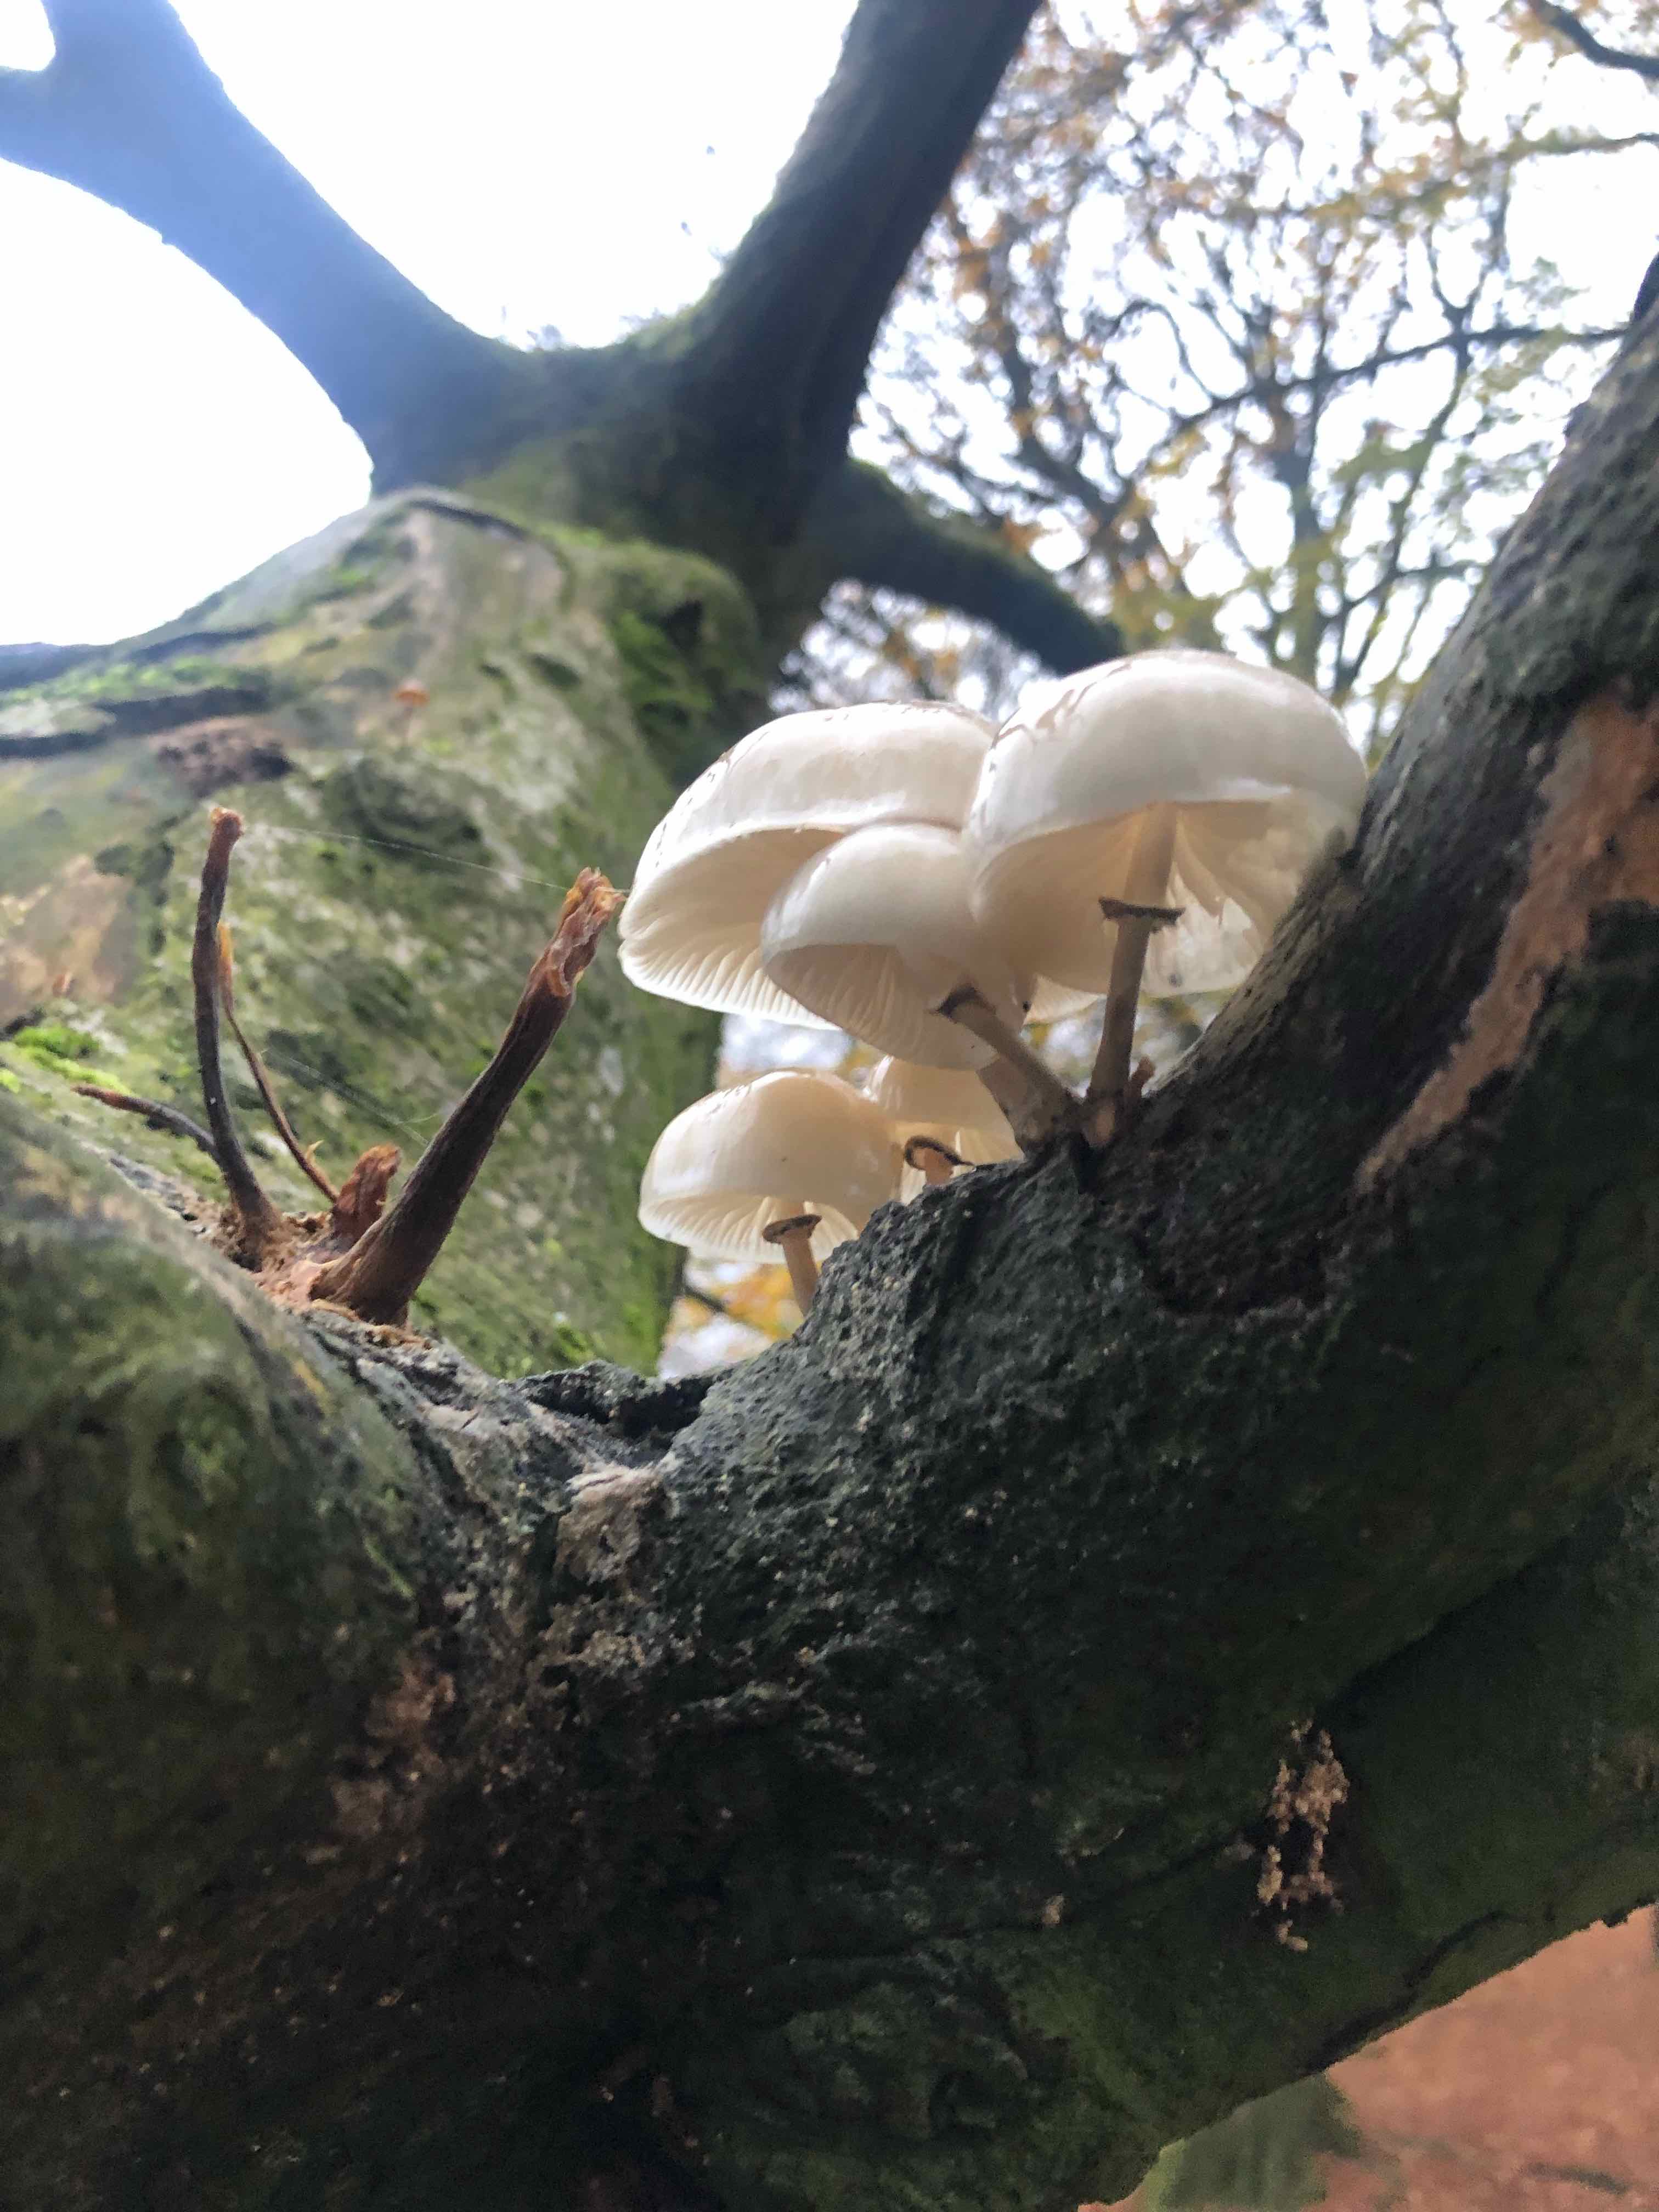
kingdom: Fungi
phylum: Basidiomycota
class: Agaricomycetes
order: Agaricales
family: Physalacriaceae
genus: Mucidula
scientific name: Mucidula mucida
